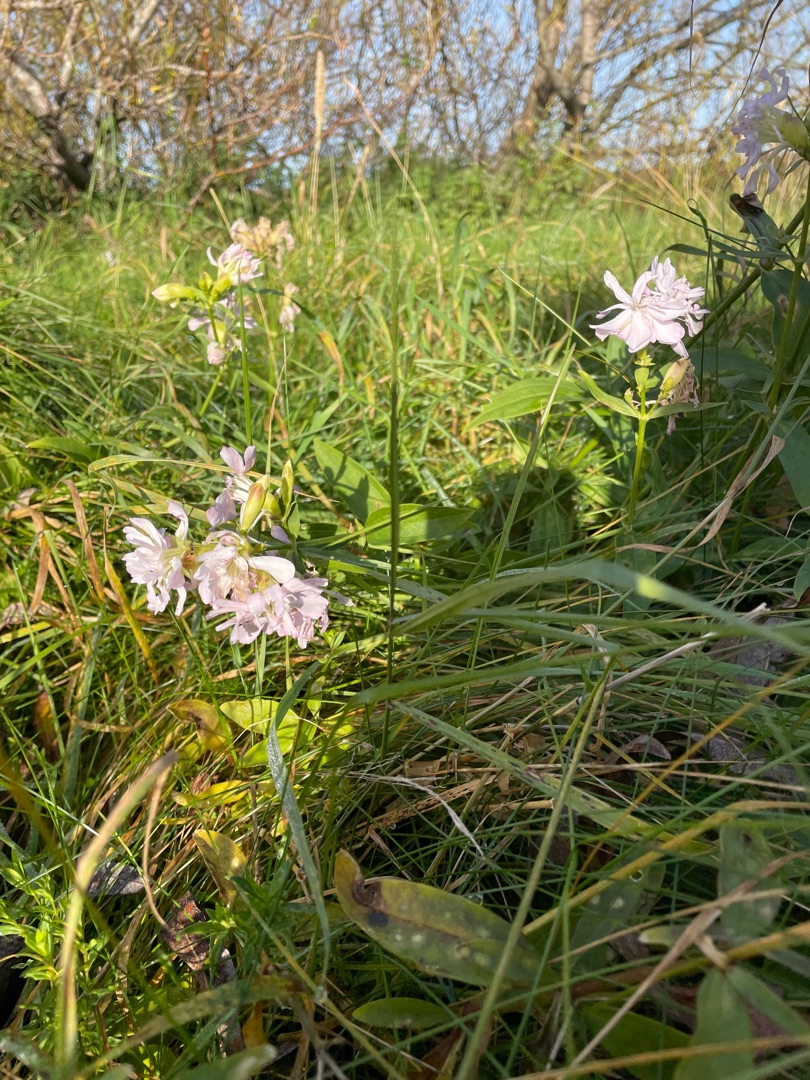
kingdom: Plantae
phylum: Tracheophyta
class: Magnoliopsida
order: Caryophyllales
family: Caryophyllaceae
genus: Saponaria
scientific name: Saponaria officinalis
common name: Sæbeurt
